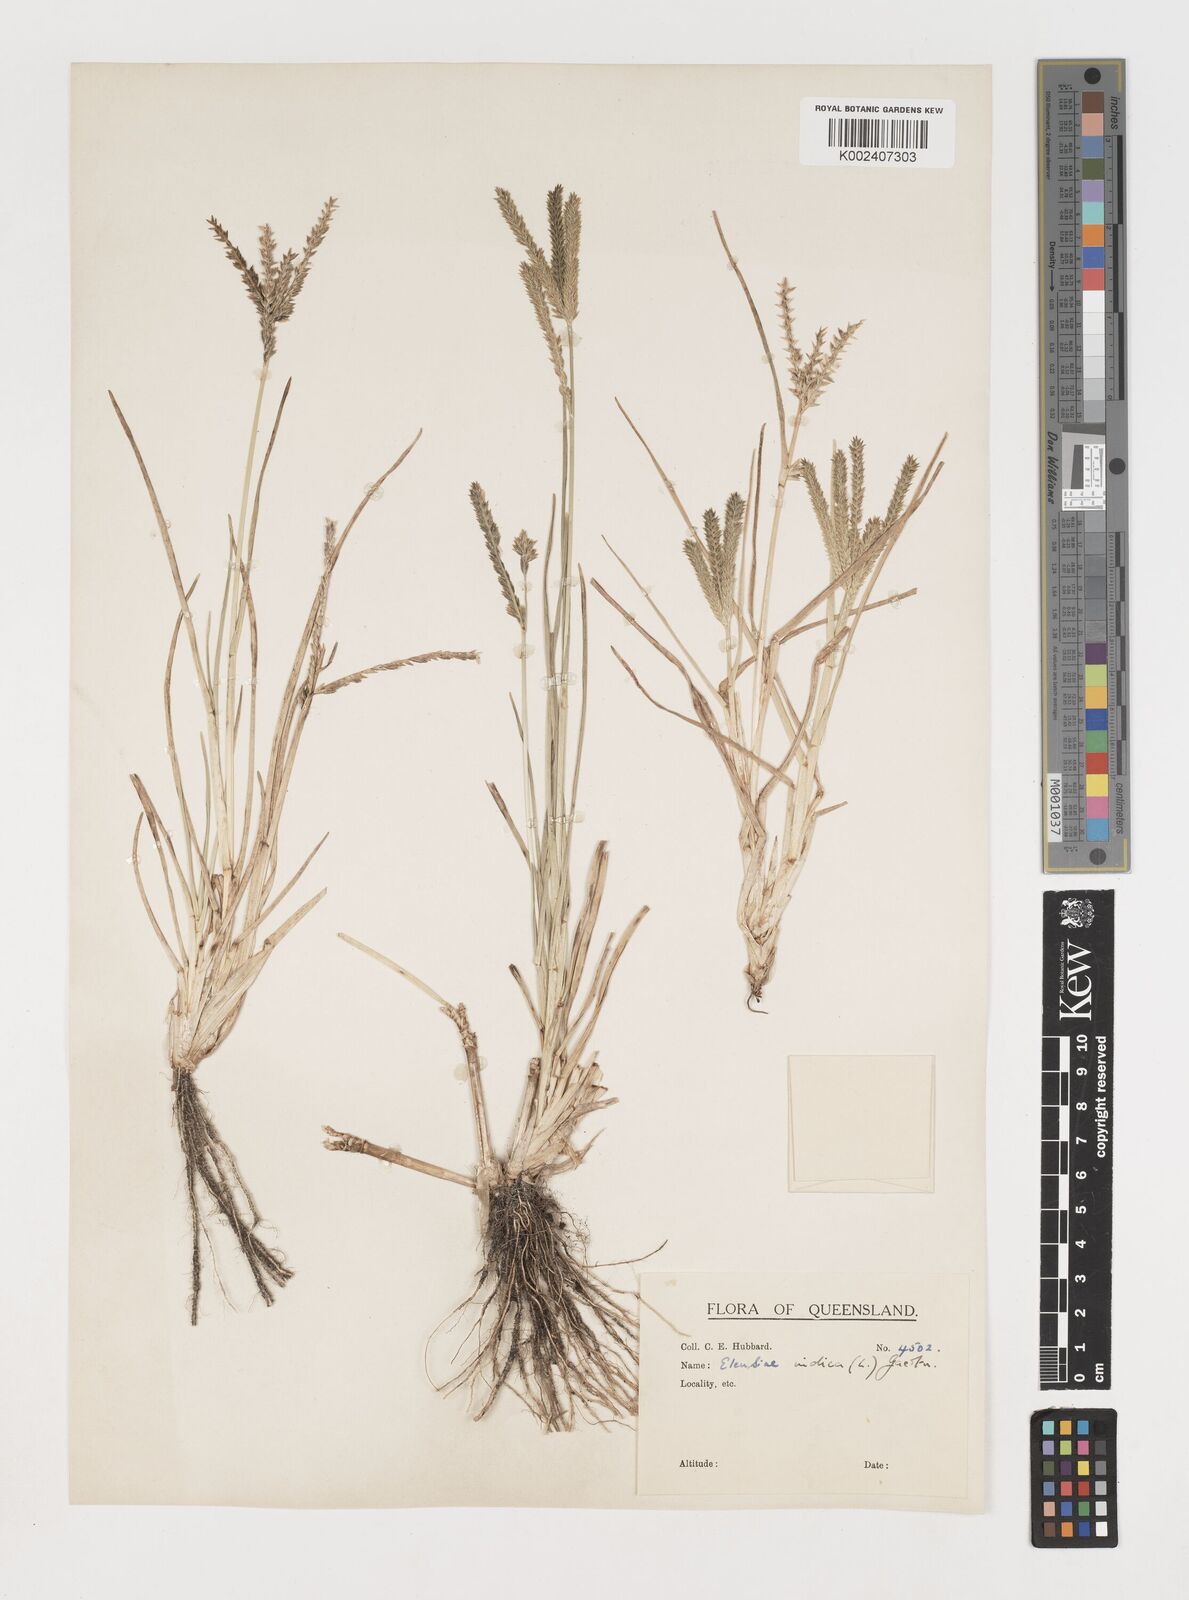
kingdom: Plantae
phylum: Tracheophyta
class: Liliopsida
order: Poales
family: Poaceae
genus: Eleusine
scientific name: Eleusine indica
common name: Yard-grass
